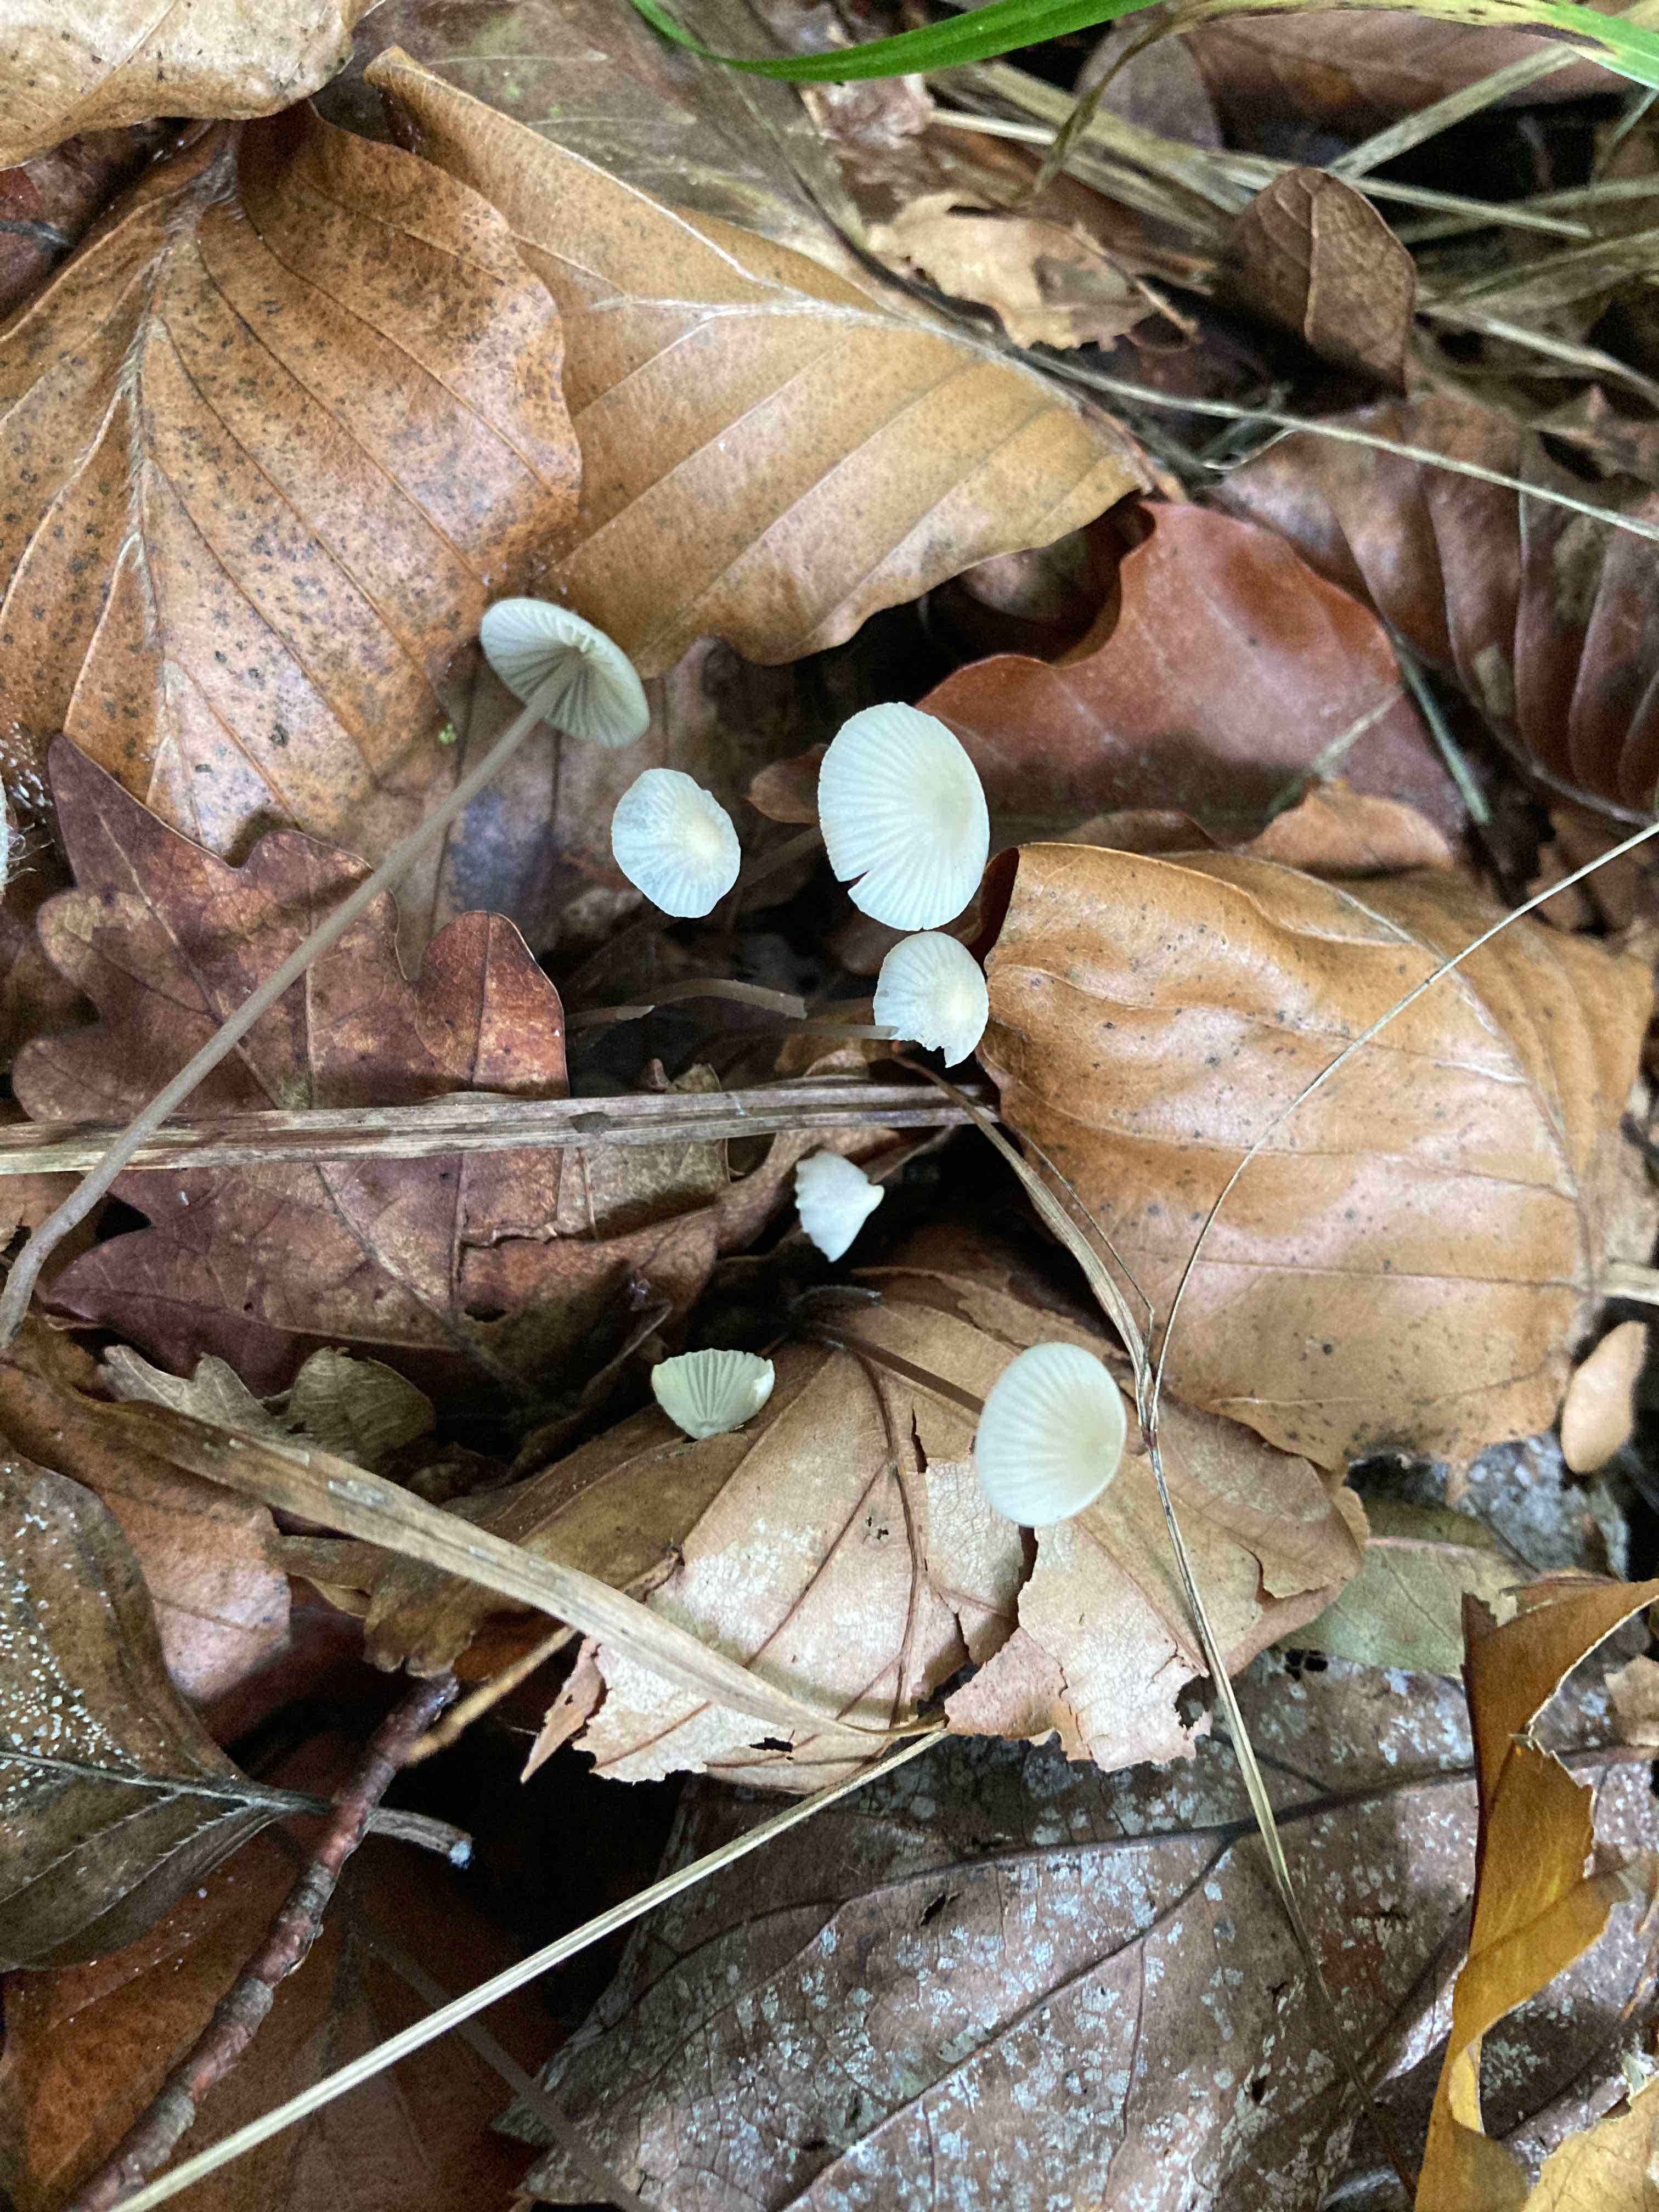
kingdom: Fungi
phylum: Basidiomycota
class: Agaricomycetes
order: Agaricales
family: Mycenaceae
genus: Mycena
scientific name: Mycena flavescens
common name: grågul huesvamp
